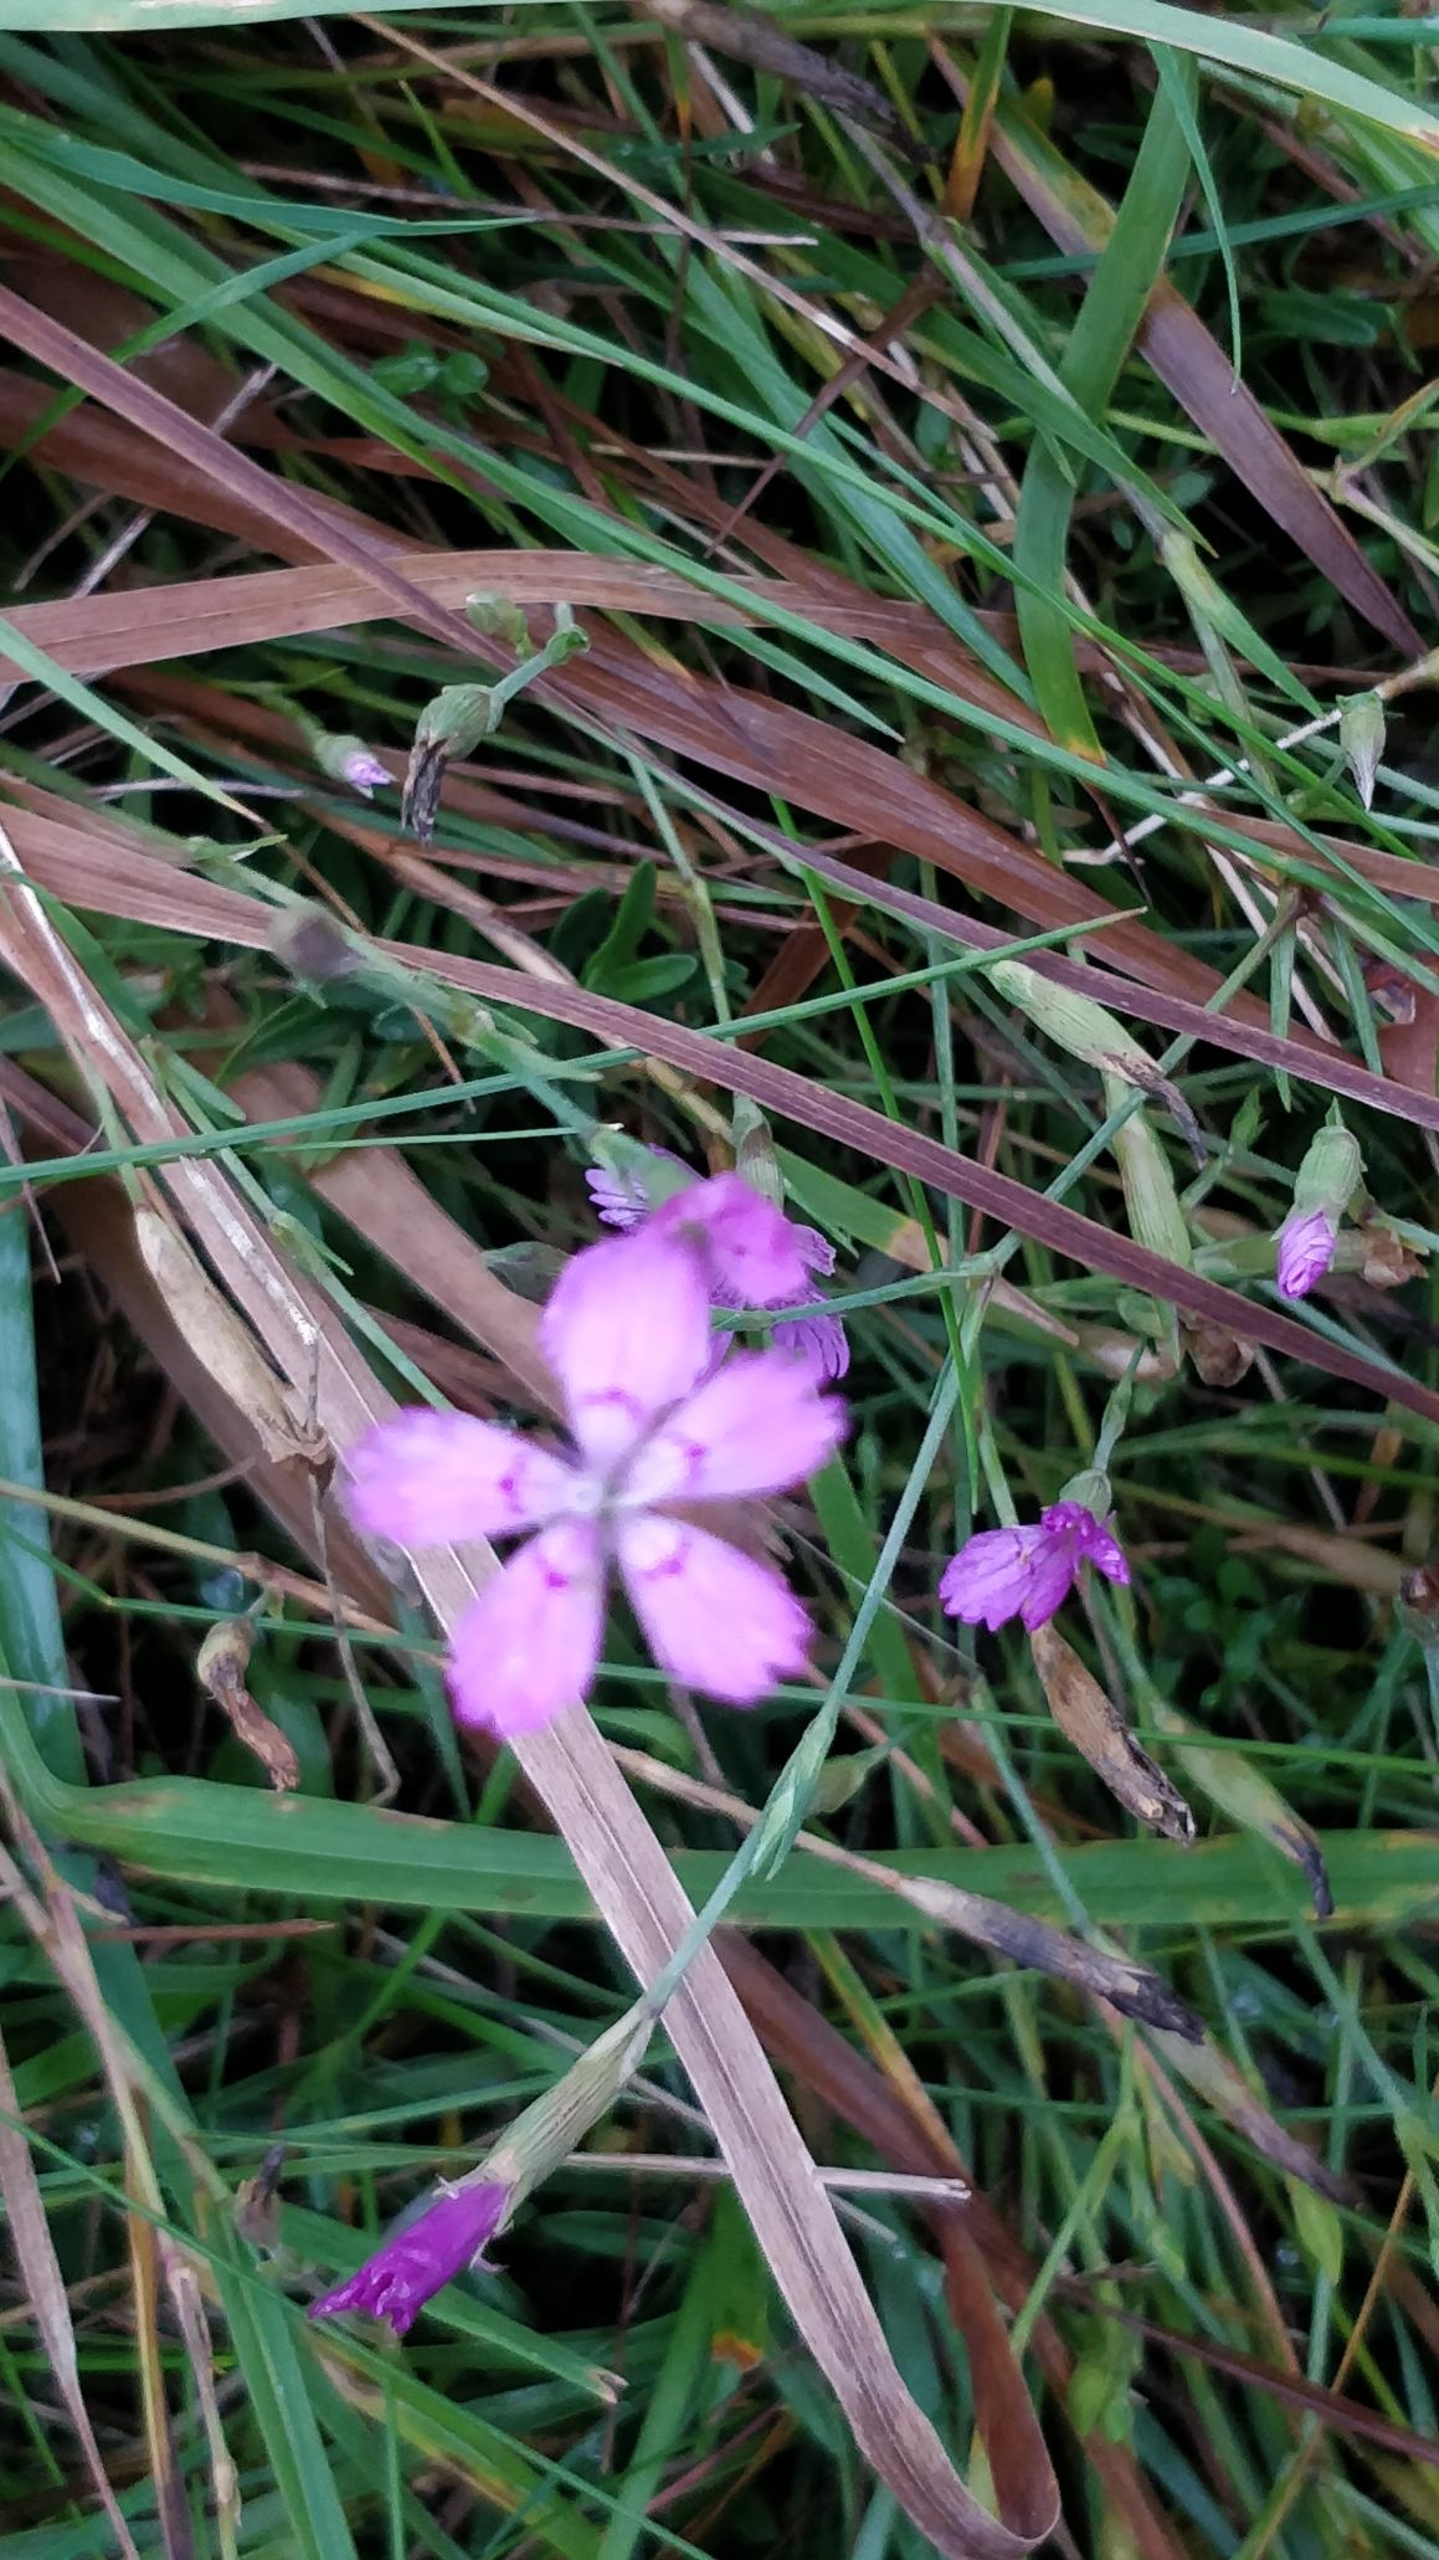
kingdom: Plantae
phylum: Tracheophyta
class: Magnoliopsida
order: Caryophyllales
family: Caryophyllaceae
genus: Dianthus
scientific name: Dianthus deltoides
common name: Bakke-nellike
